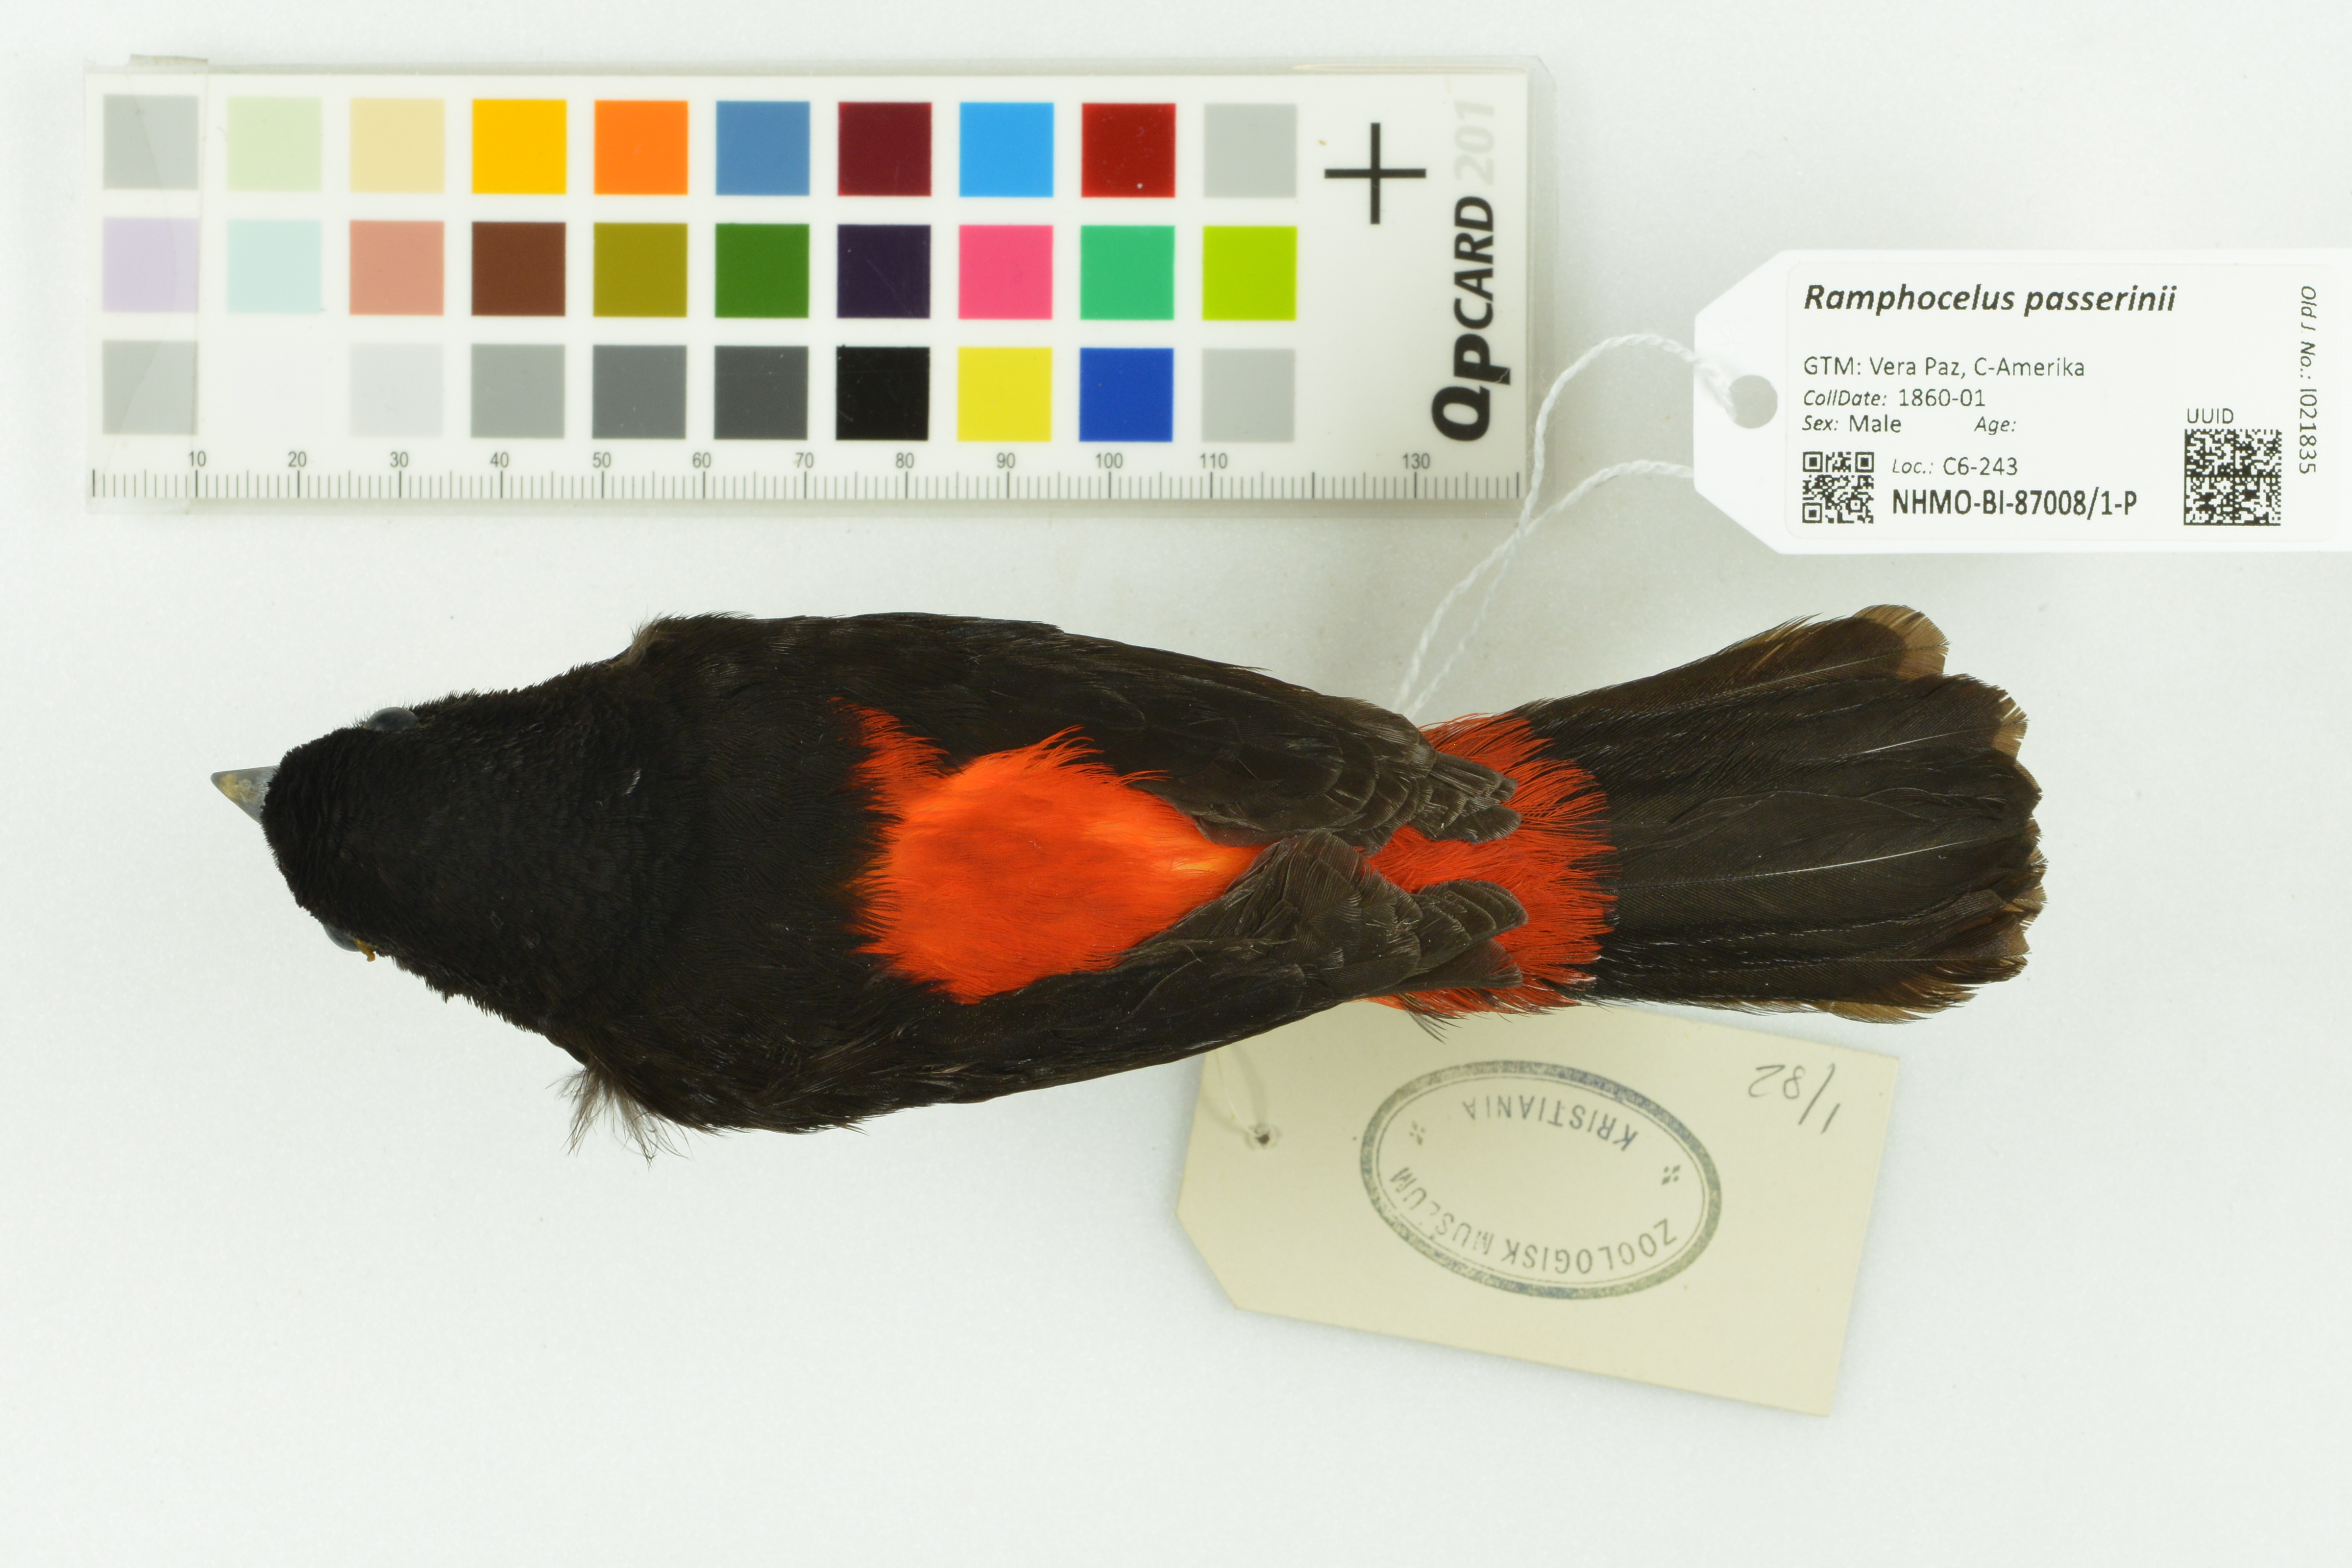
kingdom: Animalia
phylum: Chordata
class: Aves
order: Passeriformes
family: Thraupidae
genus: Ramphocelus
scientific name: Ramphocelus passerinii
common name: Passerini's tanager
